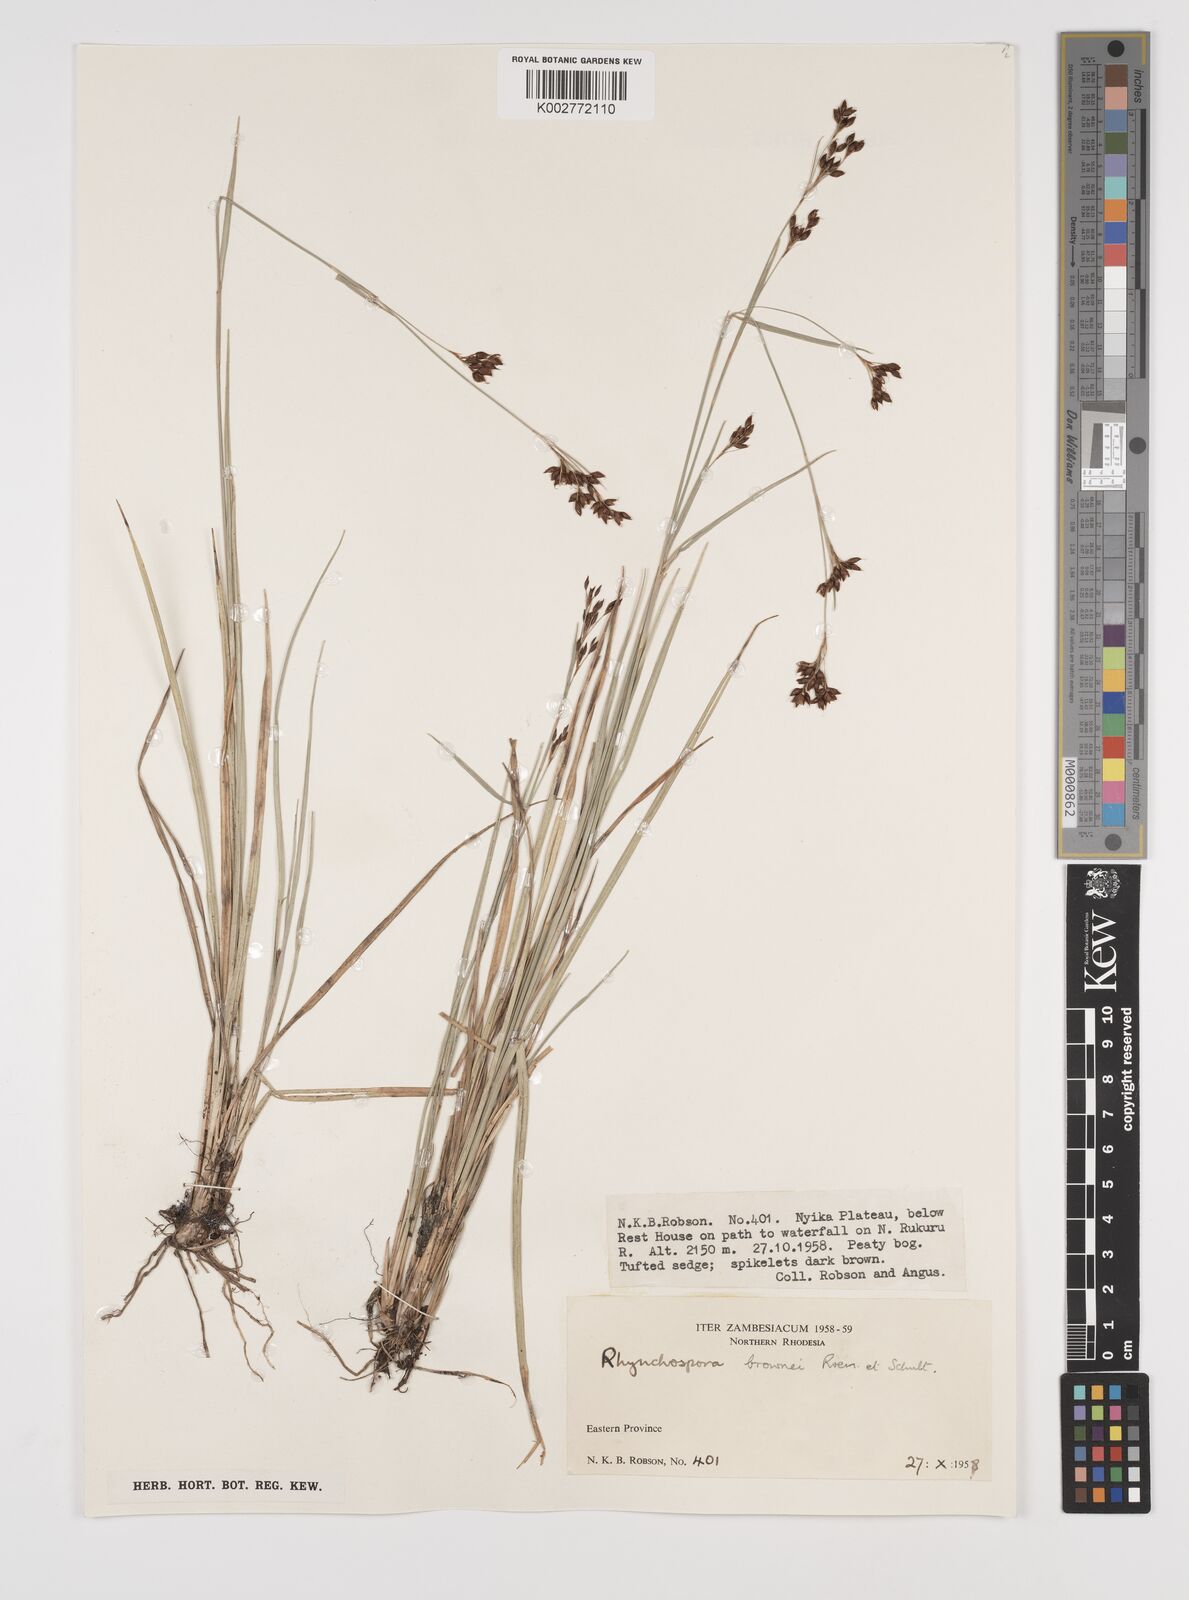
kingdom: Plantae
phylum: Tracheophyta
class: Liliopsida
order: Poales
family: Cyperaceae
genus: Rhynchospora
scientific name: Rhynchospora rugosa
